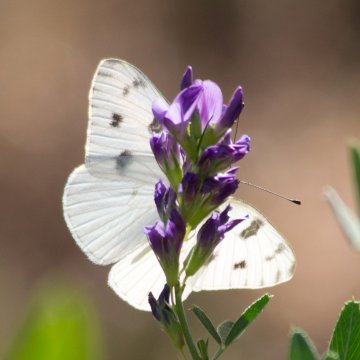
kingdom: Animalia
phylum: Arthropoda
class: Insecta
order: Lepidoptera
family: Pieridae
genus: Pontia
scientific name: Pontia protodice
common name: Checkered White
